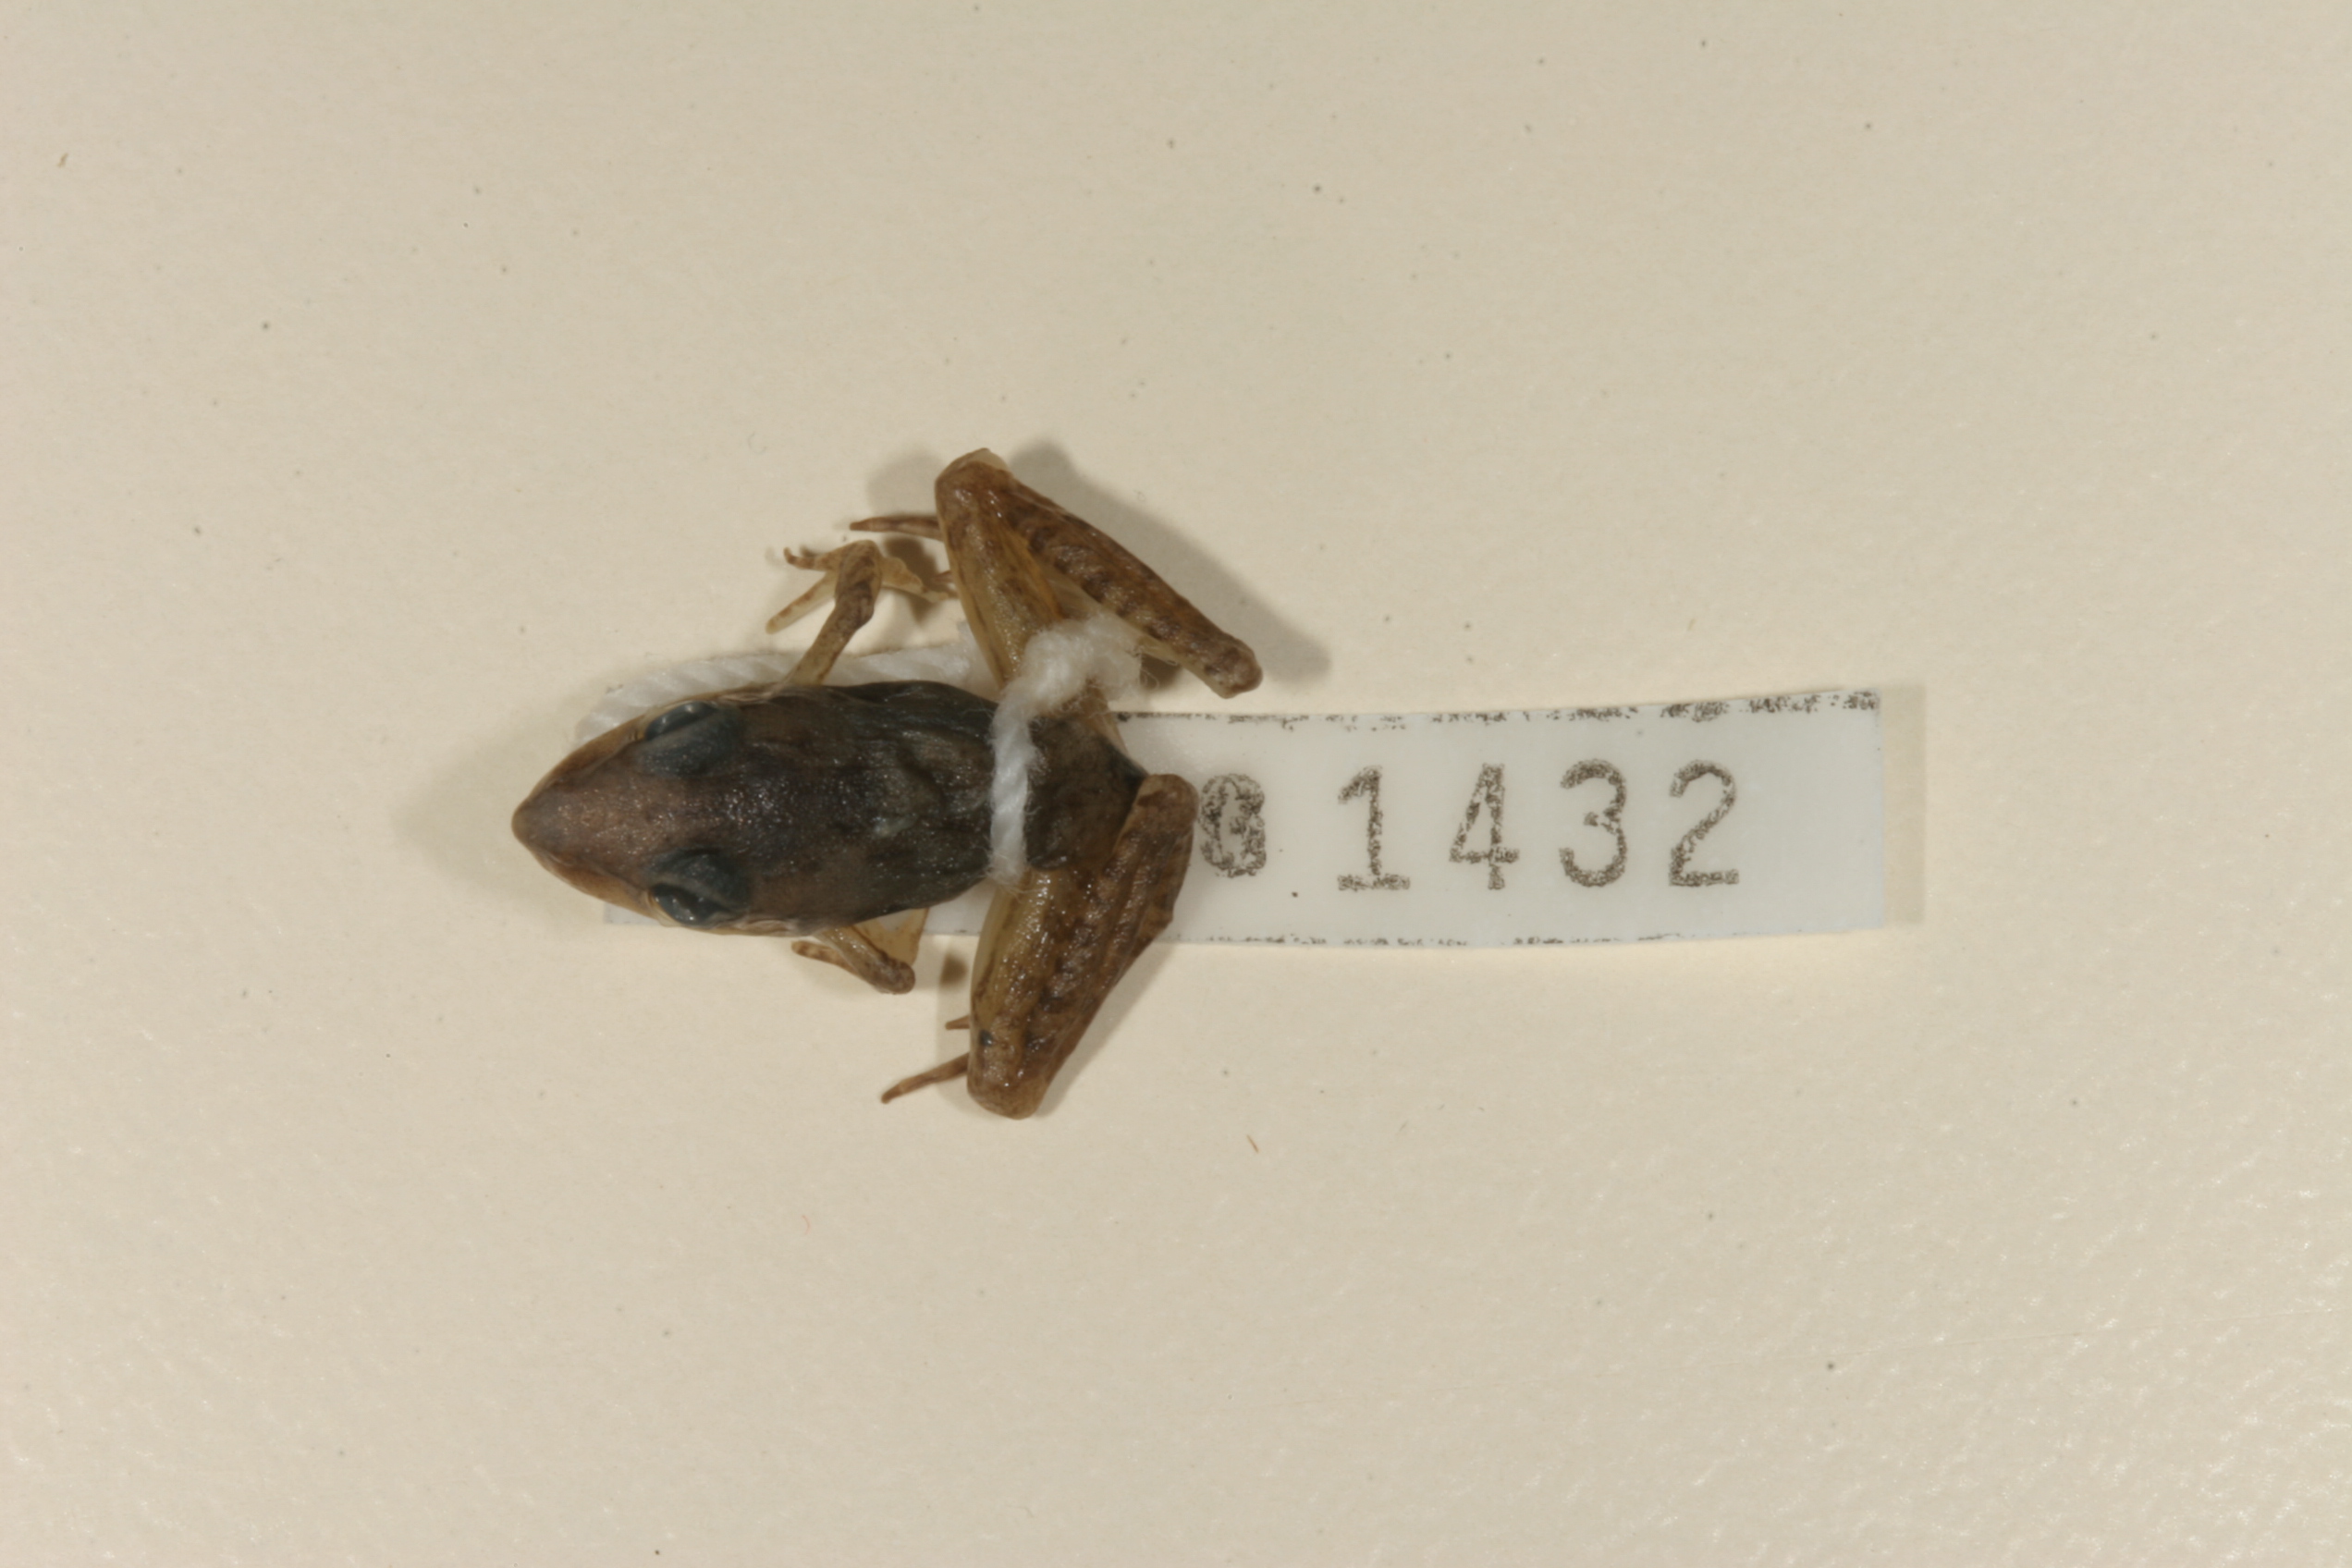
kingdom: Animalia
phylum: Chordata
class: Amphibia
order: Anura
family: Ptychadenidae
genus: Ptychadena
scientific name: Ptychadena anchietae
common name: Anchieta's ridged frog
